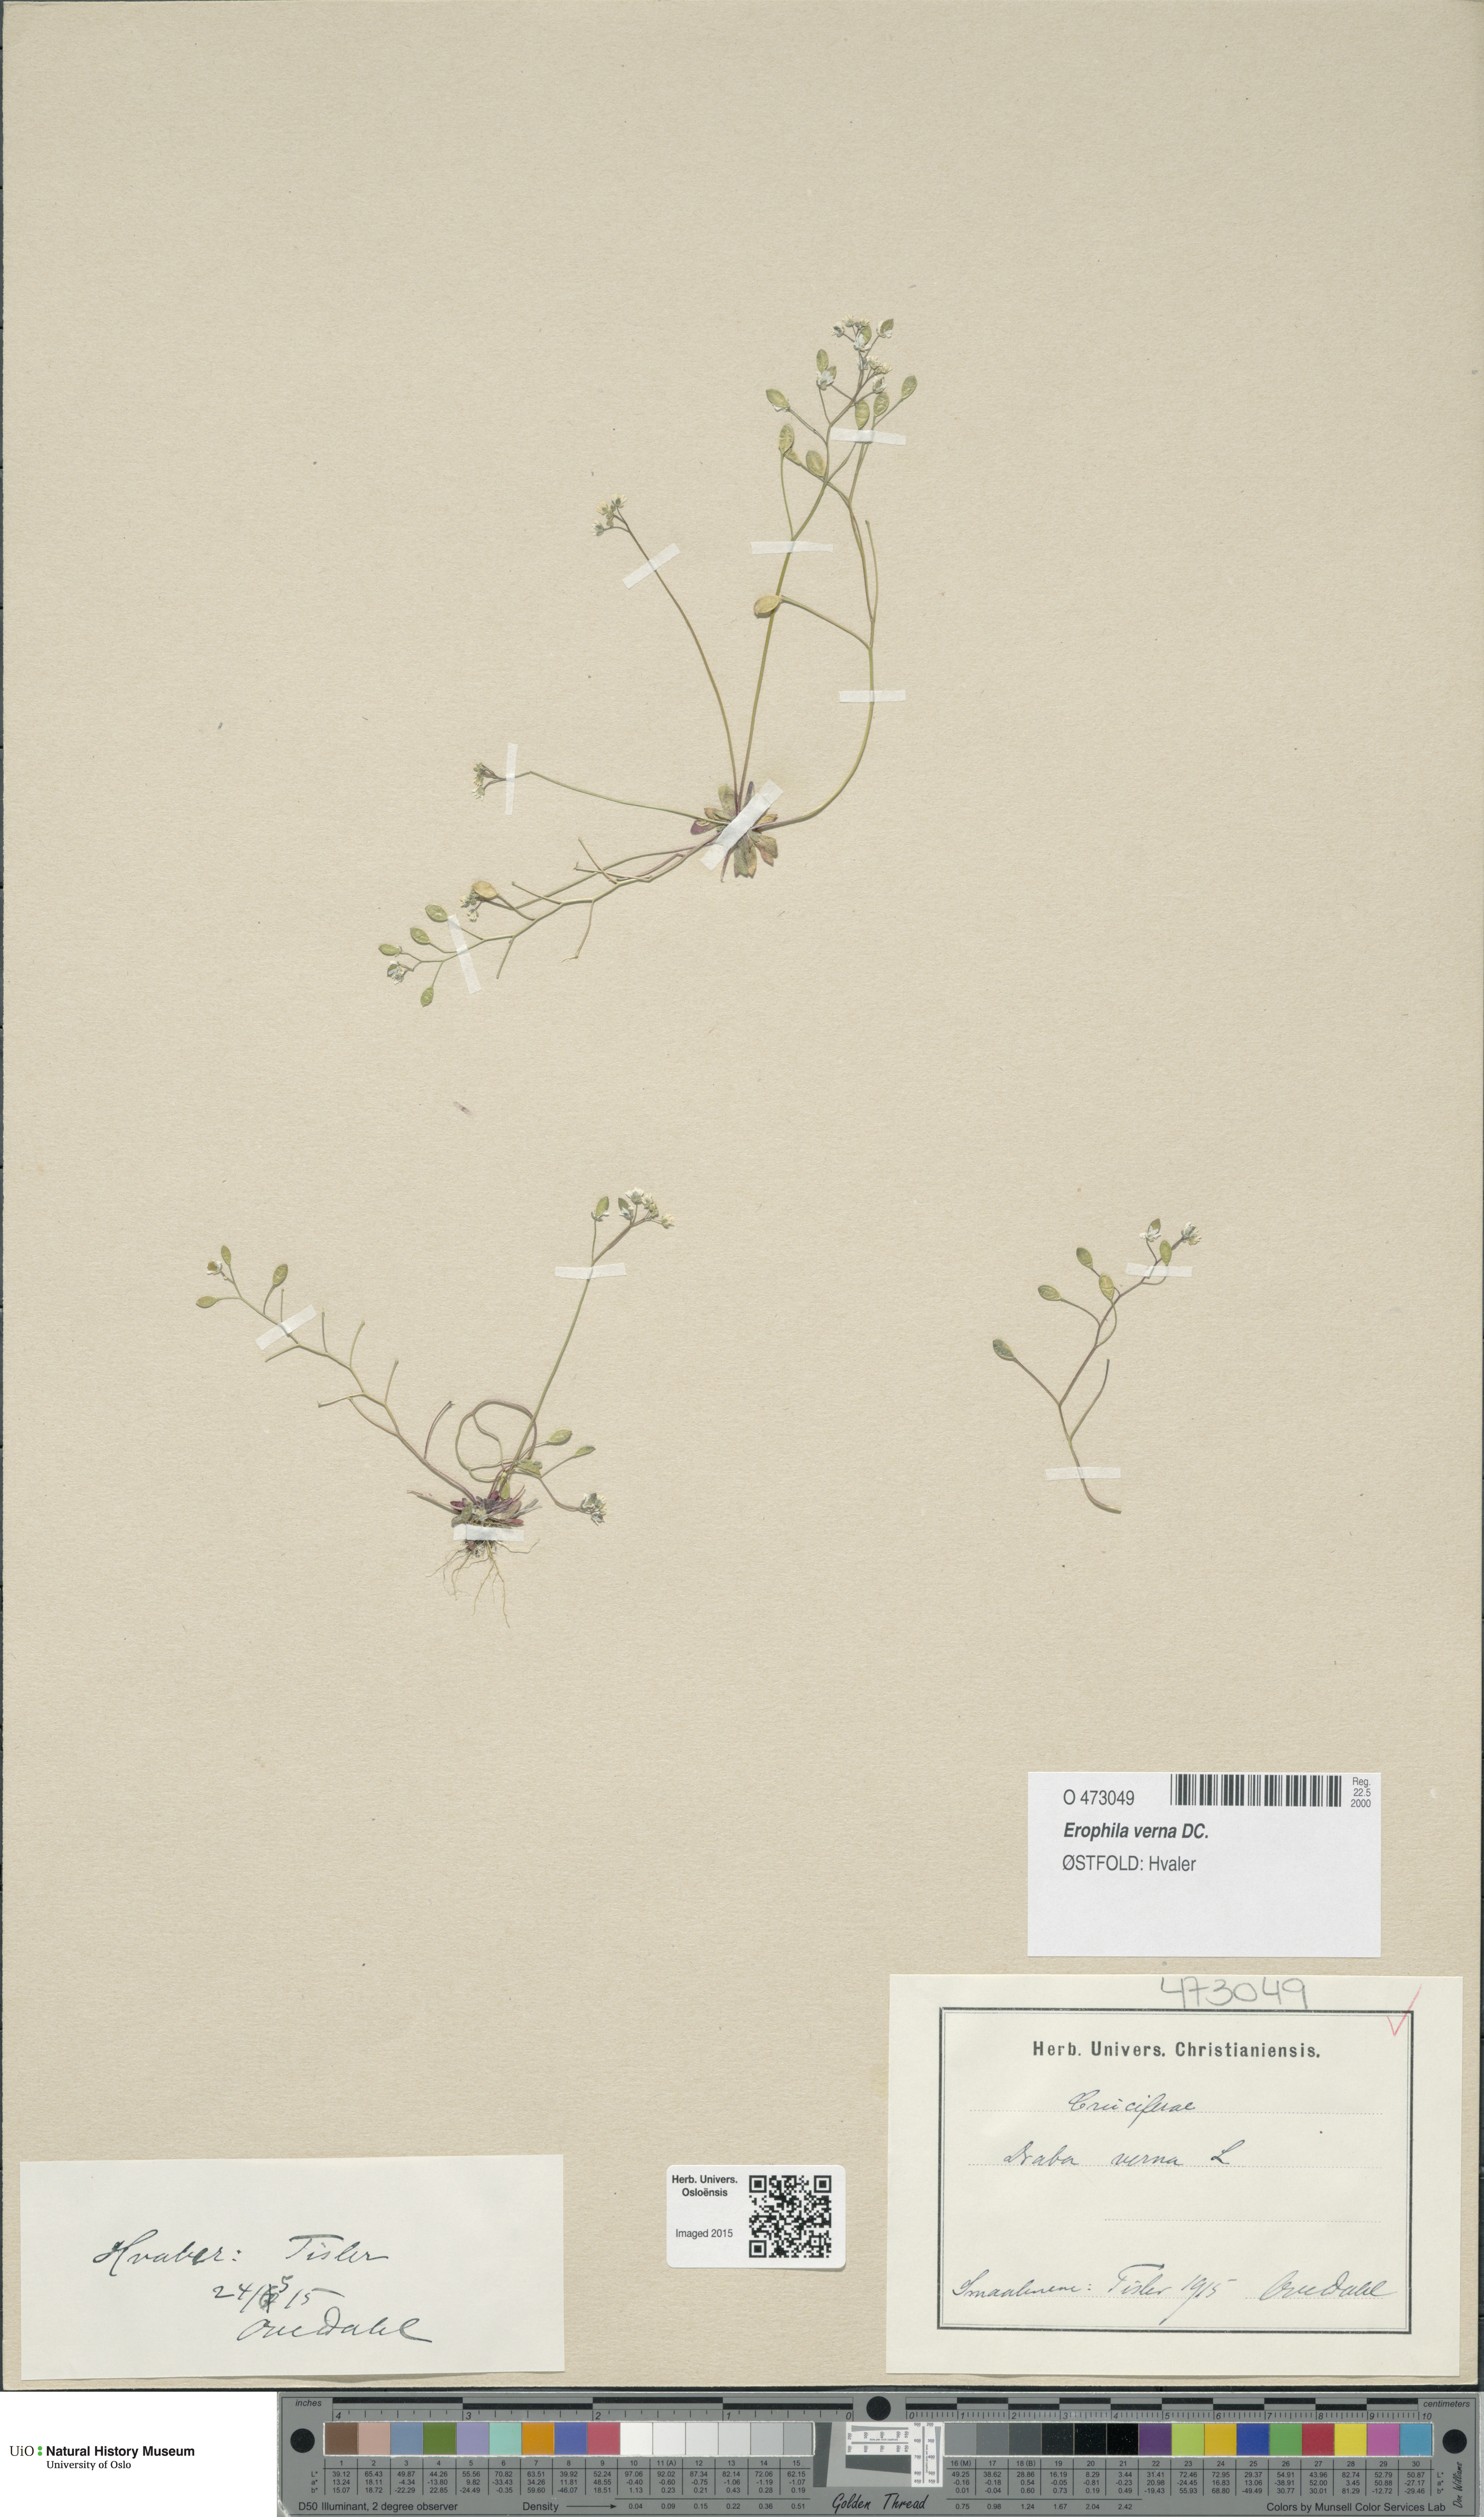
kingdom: Plantae
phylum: Tracheophyta
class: Magnoliopsida
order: Brassicales
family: Brassicaceae
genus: Draba
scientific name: Draba verna
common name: Spring draba
